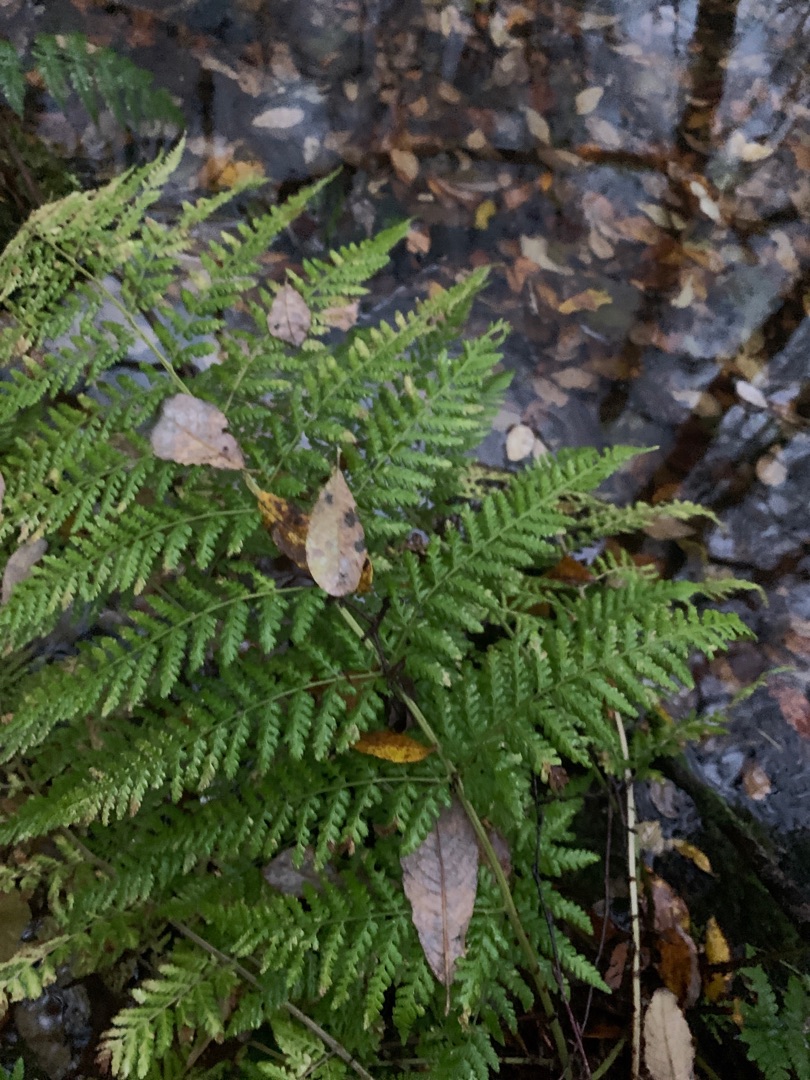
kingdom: Plantae
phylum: Tracheophyta
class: Polypodiopsida
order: Polypodiales
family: Dryopteridaceae
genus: Dryopteris
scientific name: Dryopteris dilatata
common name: Bredbladet mangeløv
